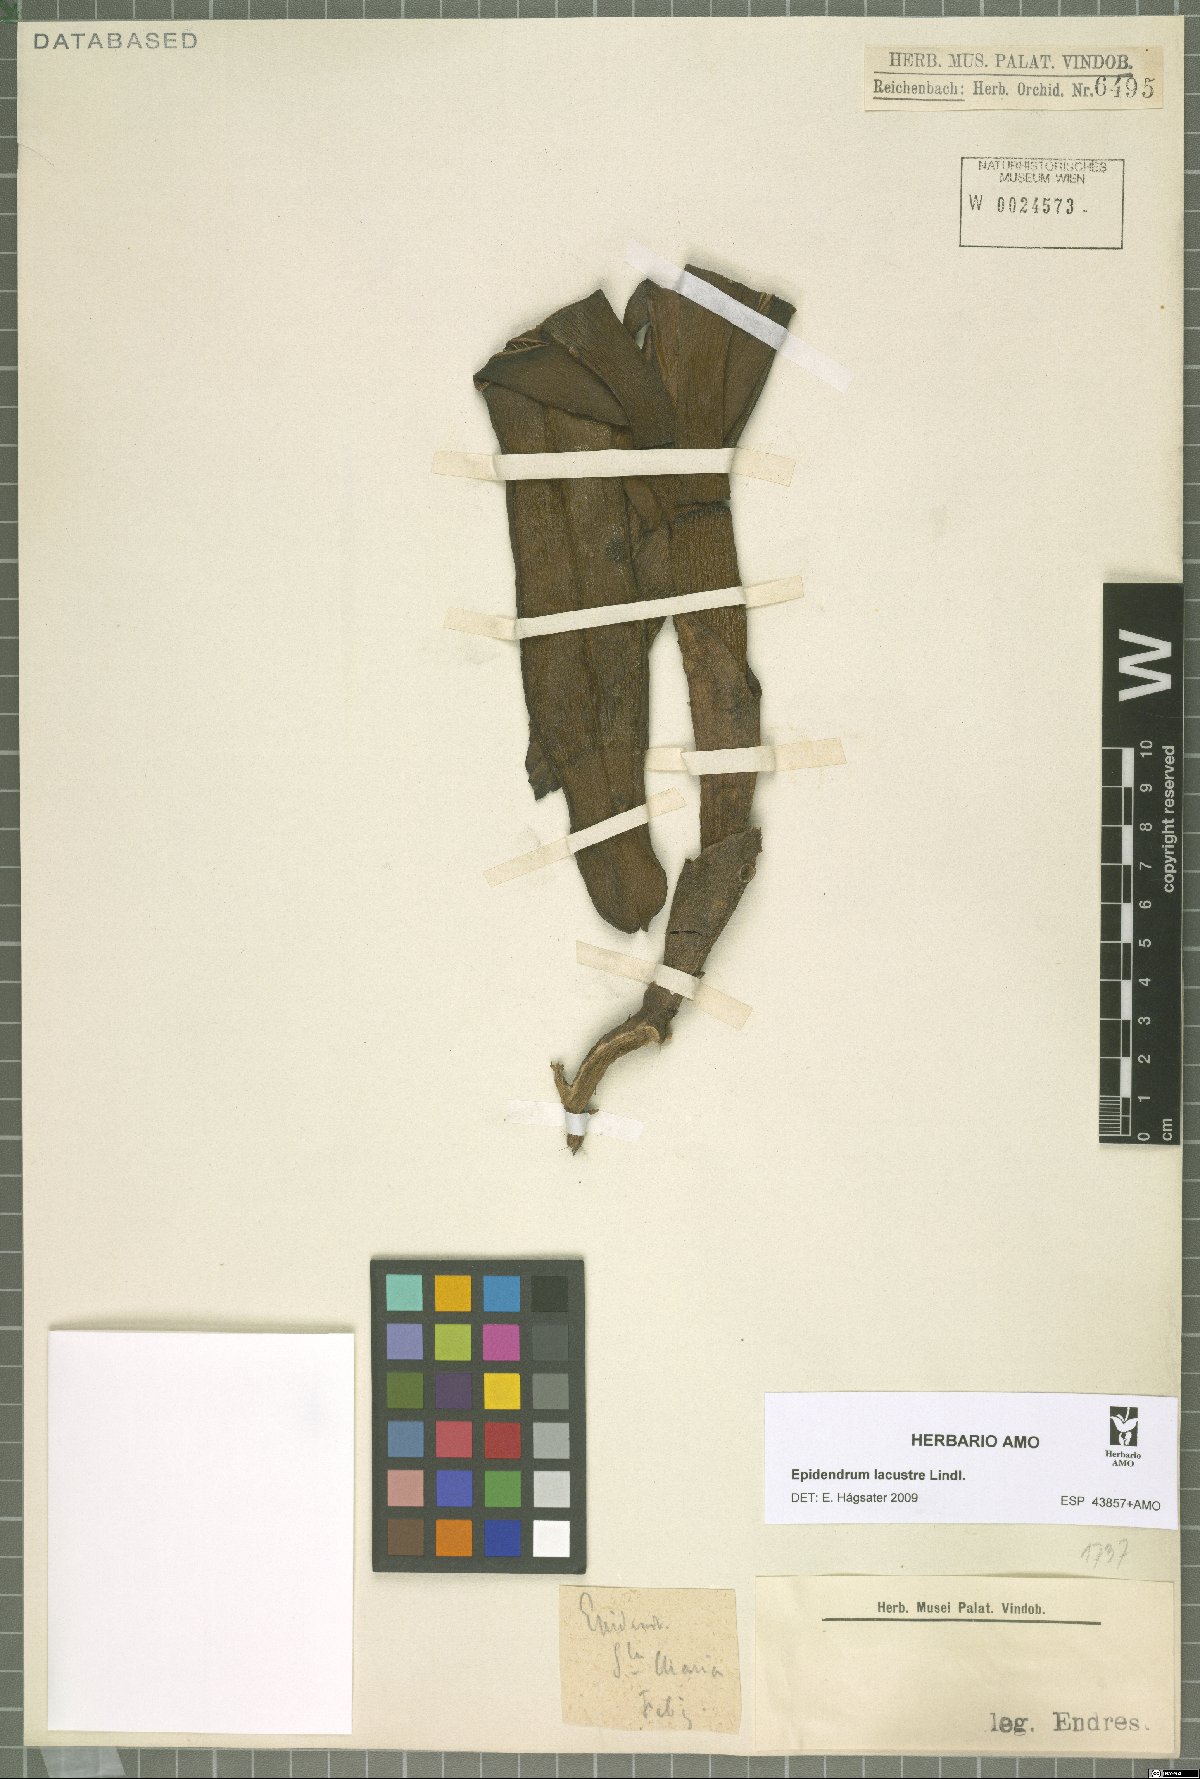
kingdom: Plantae
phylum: Tracheophyta
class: Liliopsida
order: Asparagales
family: Orchidaceae
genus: Epidendrum
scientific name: Epidendrum lacustre
